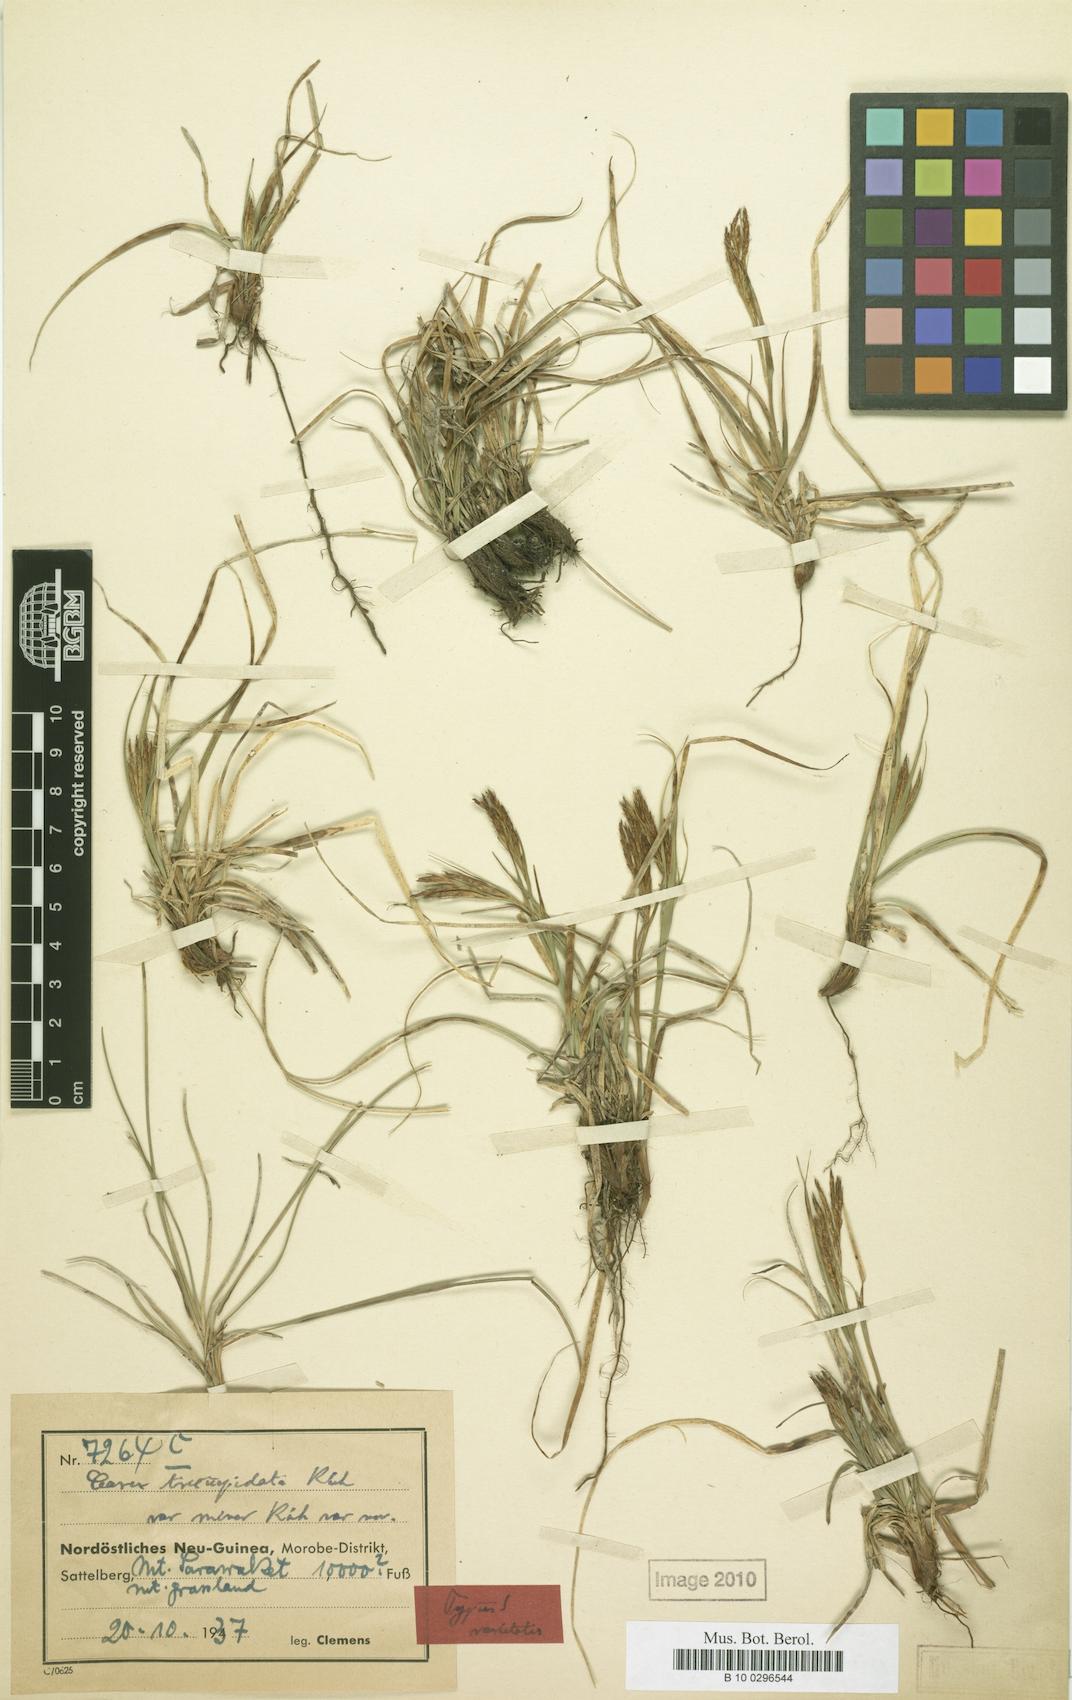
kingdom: Plantae
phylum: Tracheophyta
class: Liliopsida
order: Poales
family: Cyperaceae
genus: Carex
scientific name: Carex brachyanthera
